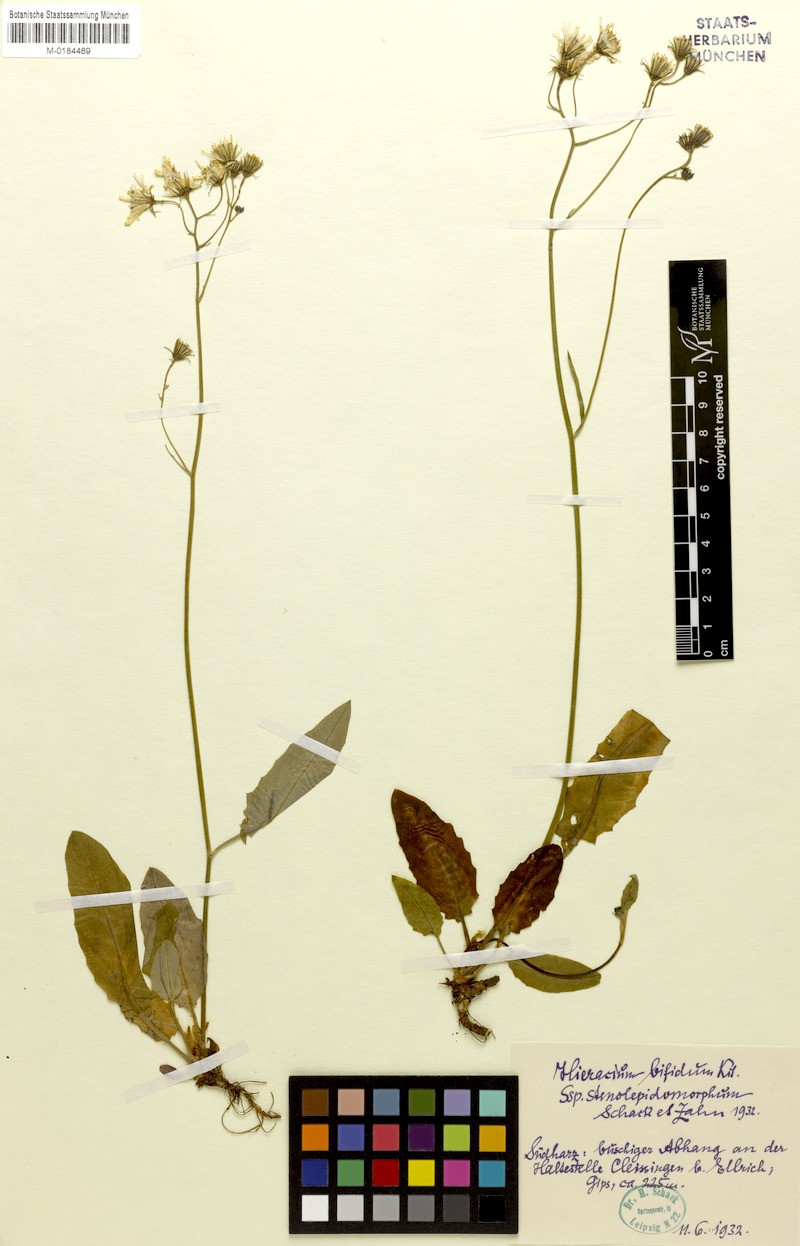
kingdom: Plantae
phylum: Tracheophyta
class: Magnoliopsida
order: Asterales
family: Asteraceae
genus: Hieracium
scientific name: Hieracium bifidum
